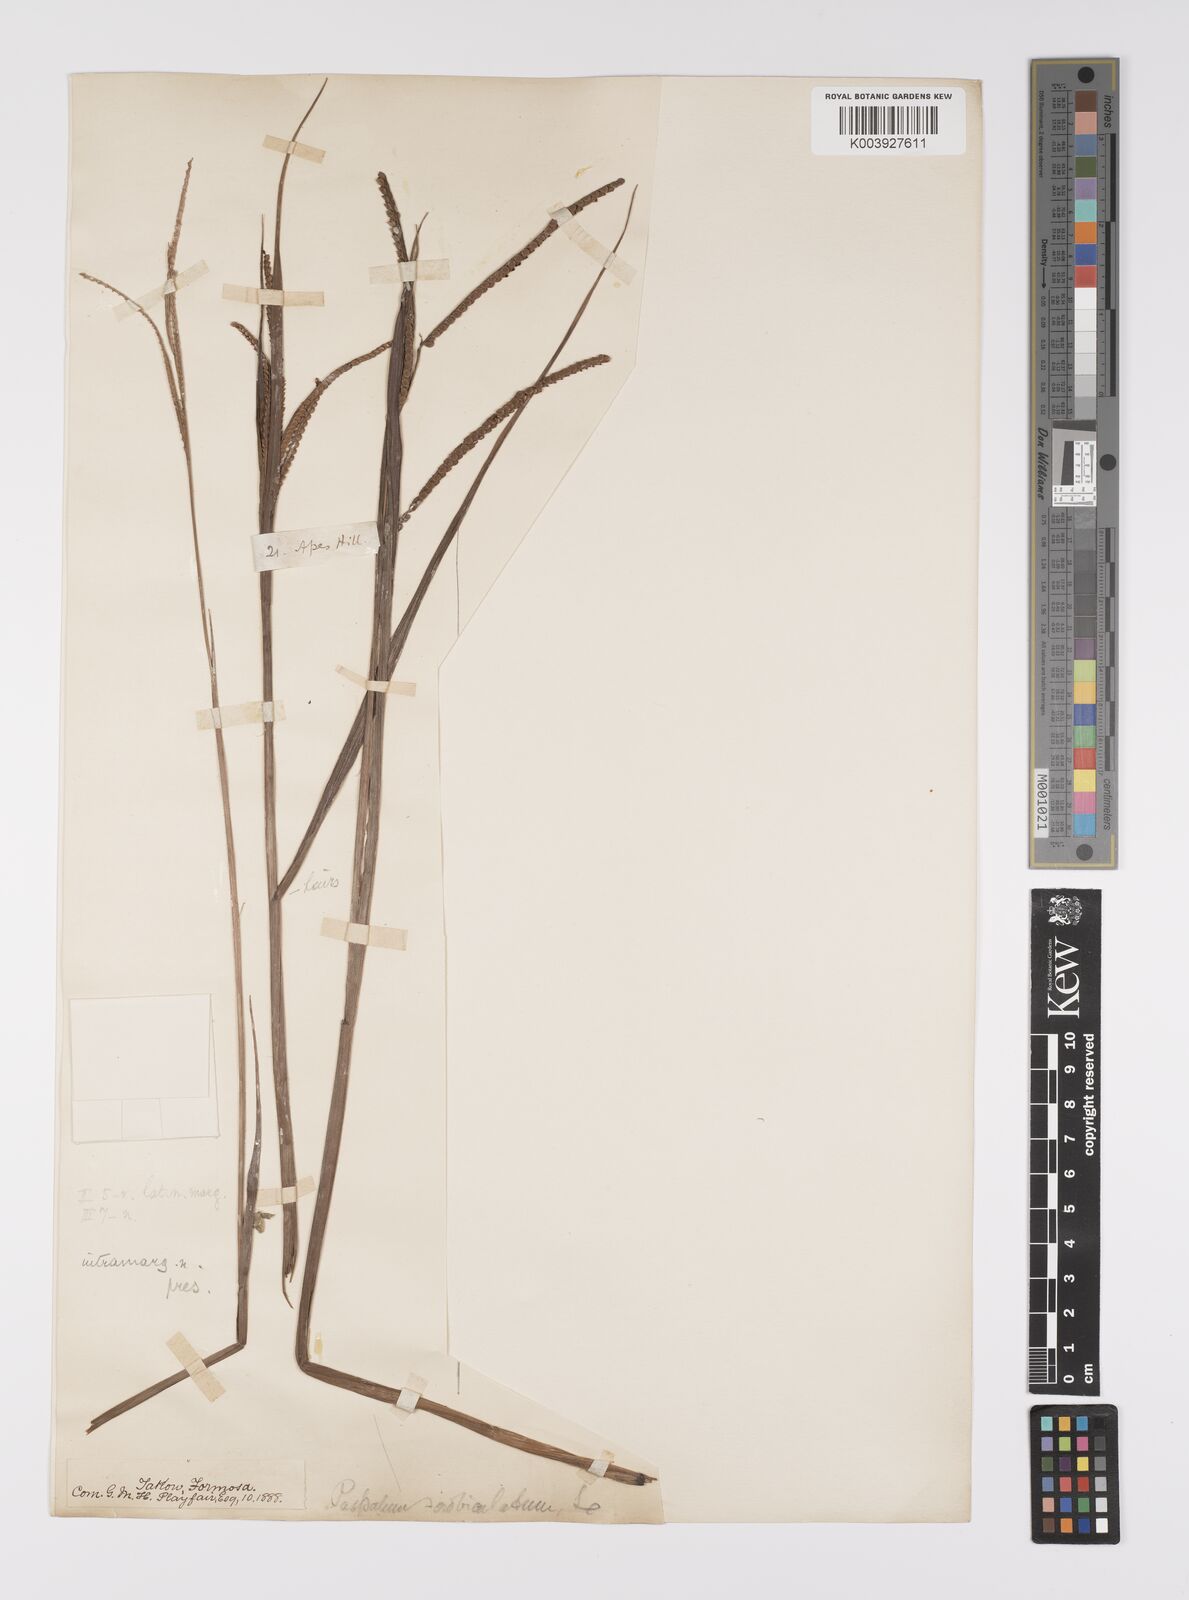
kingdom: Plantae
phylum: Tracheophyta
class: Liliopsida
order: Poales
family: Poaceae
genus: Paspalum
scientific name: Paspalum scrobiculatum
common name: Kodo millet
